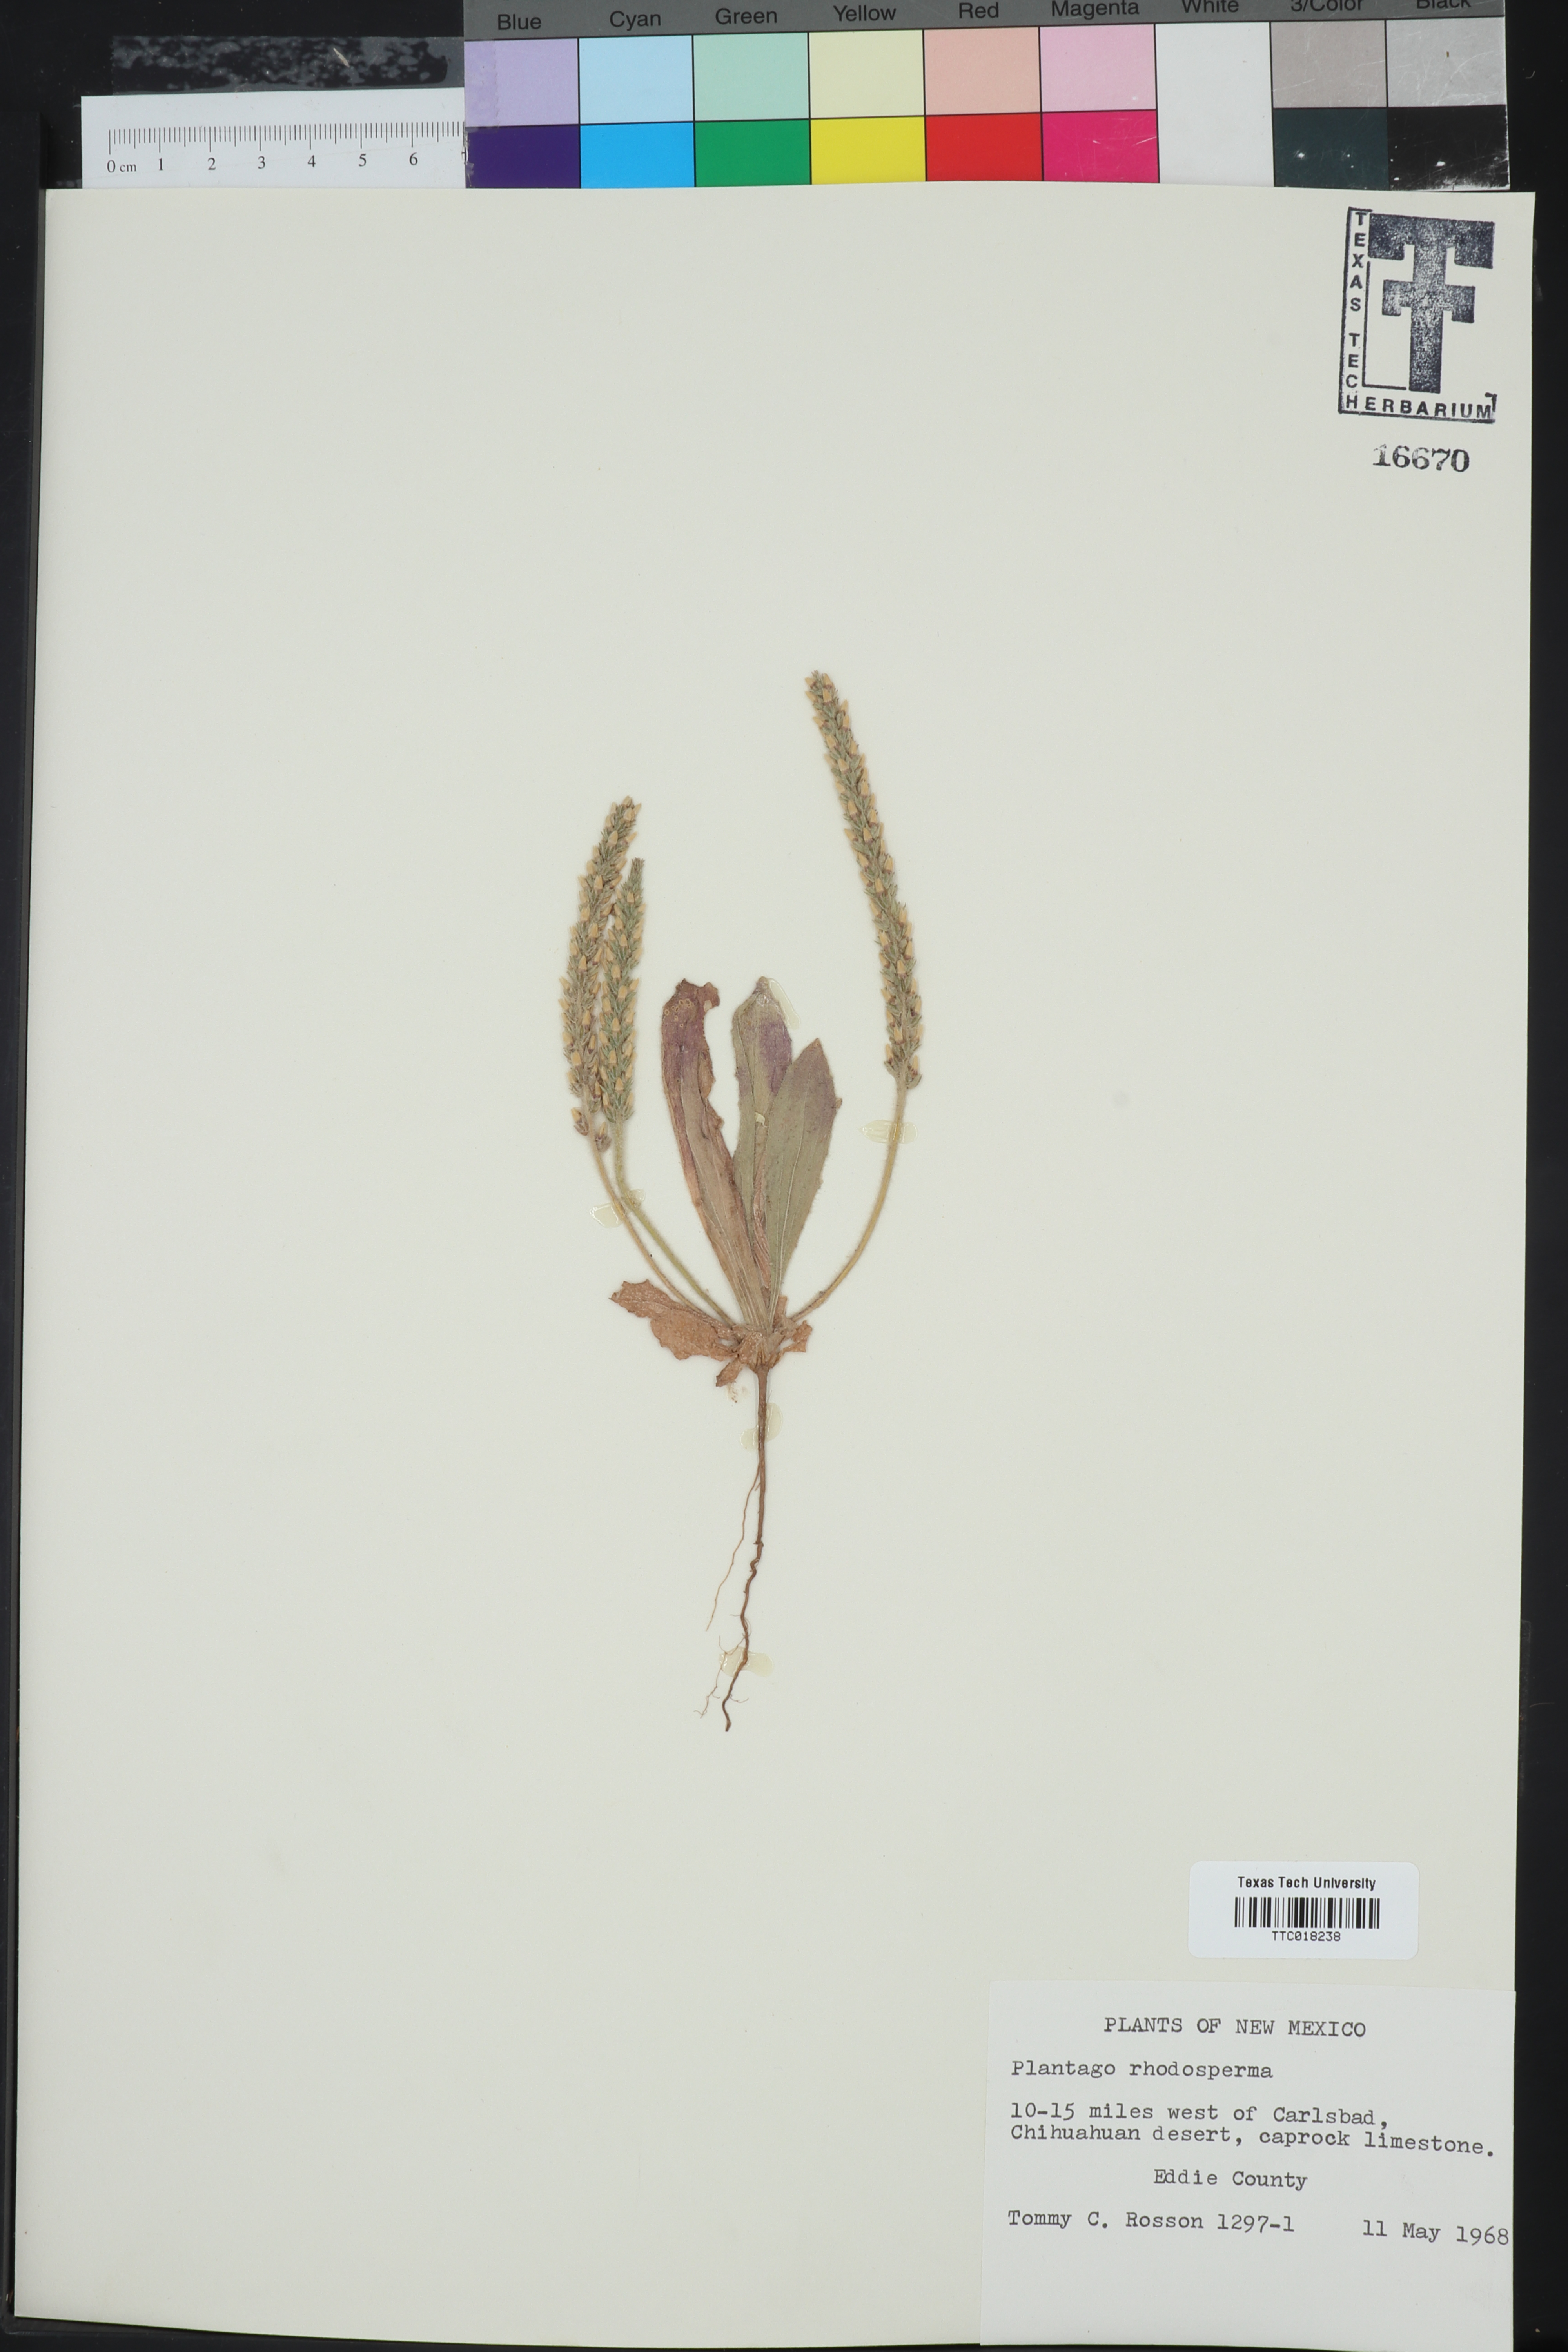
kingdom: Plantae
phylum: Tracheophyta
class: Magnoliopsida
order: Lamiales
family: Plantaginaceae
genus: Plantago
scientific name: Plantago rhodosperma
